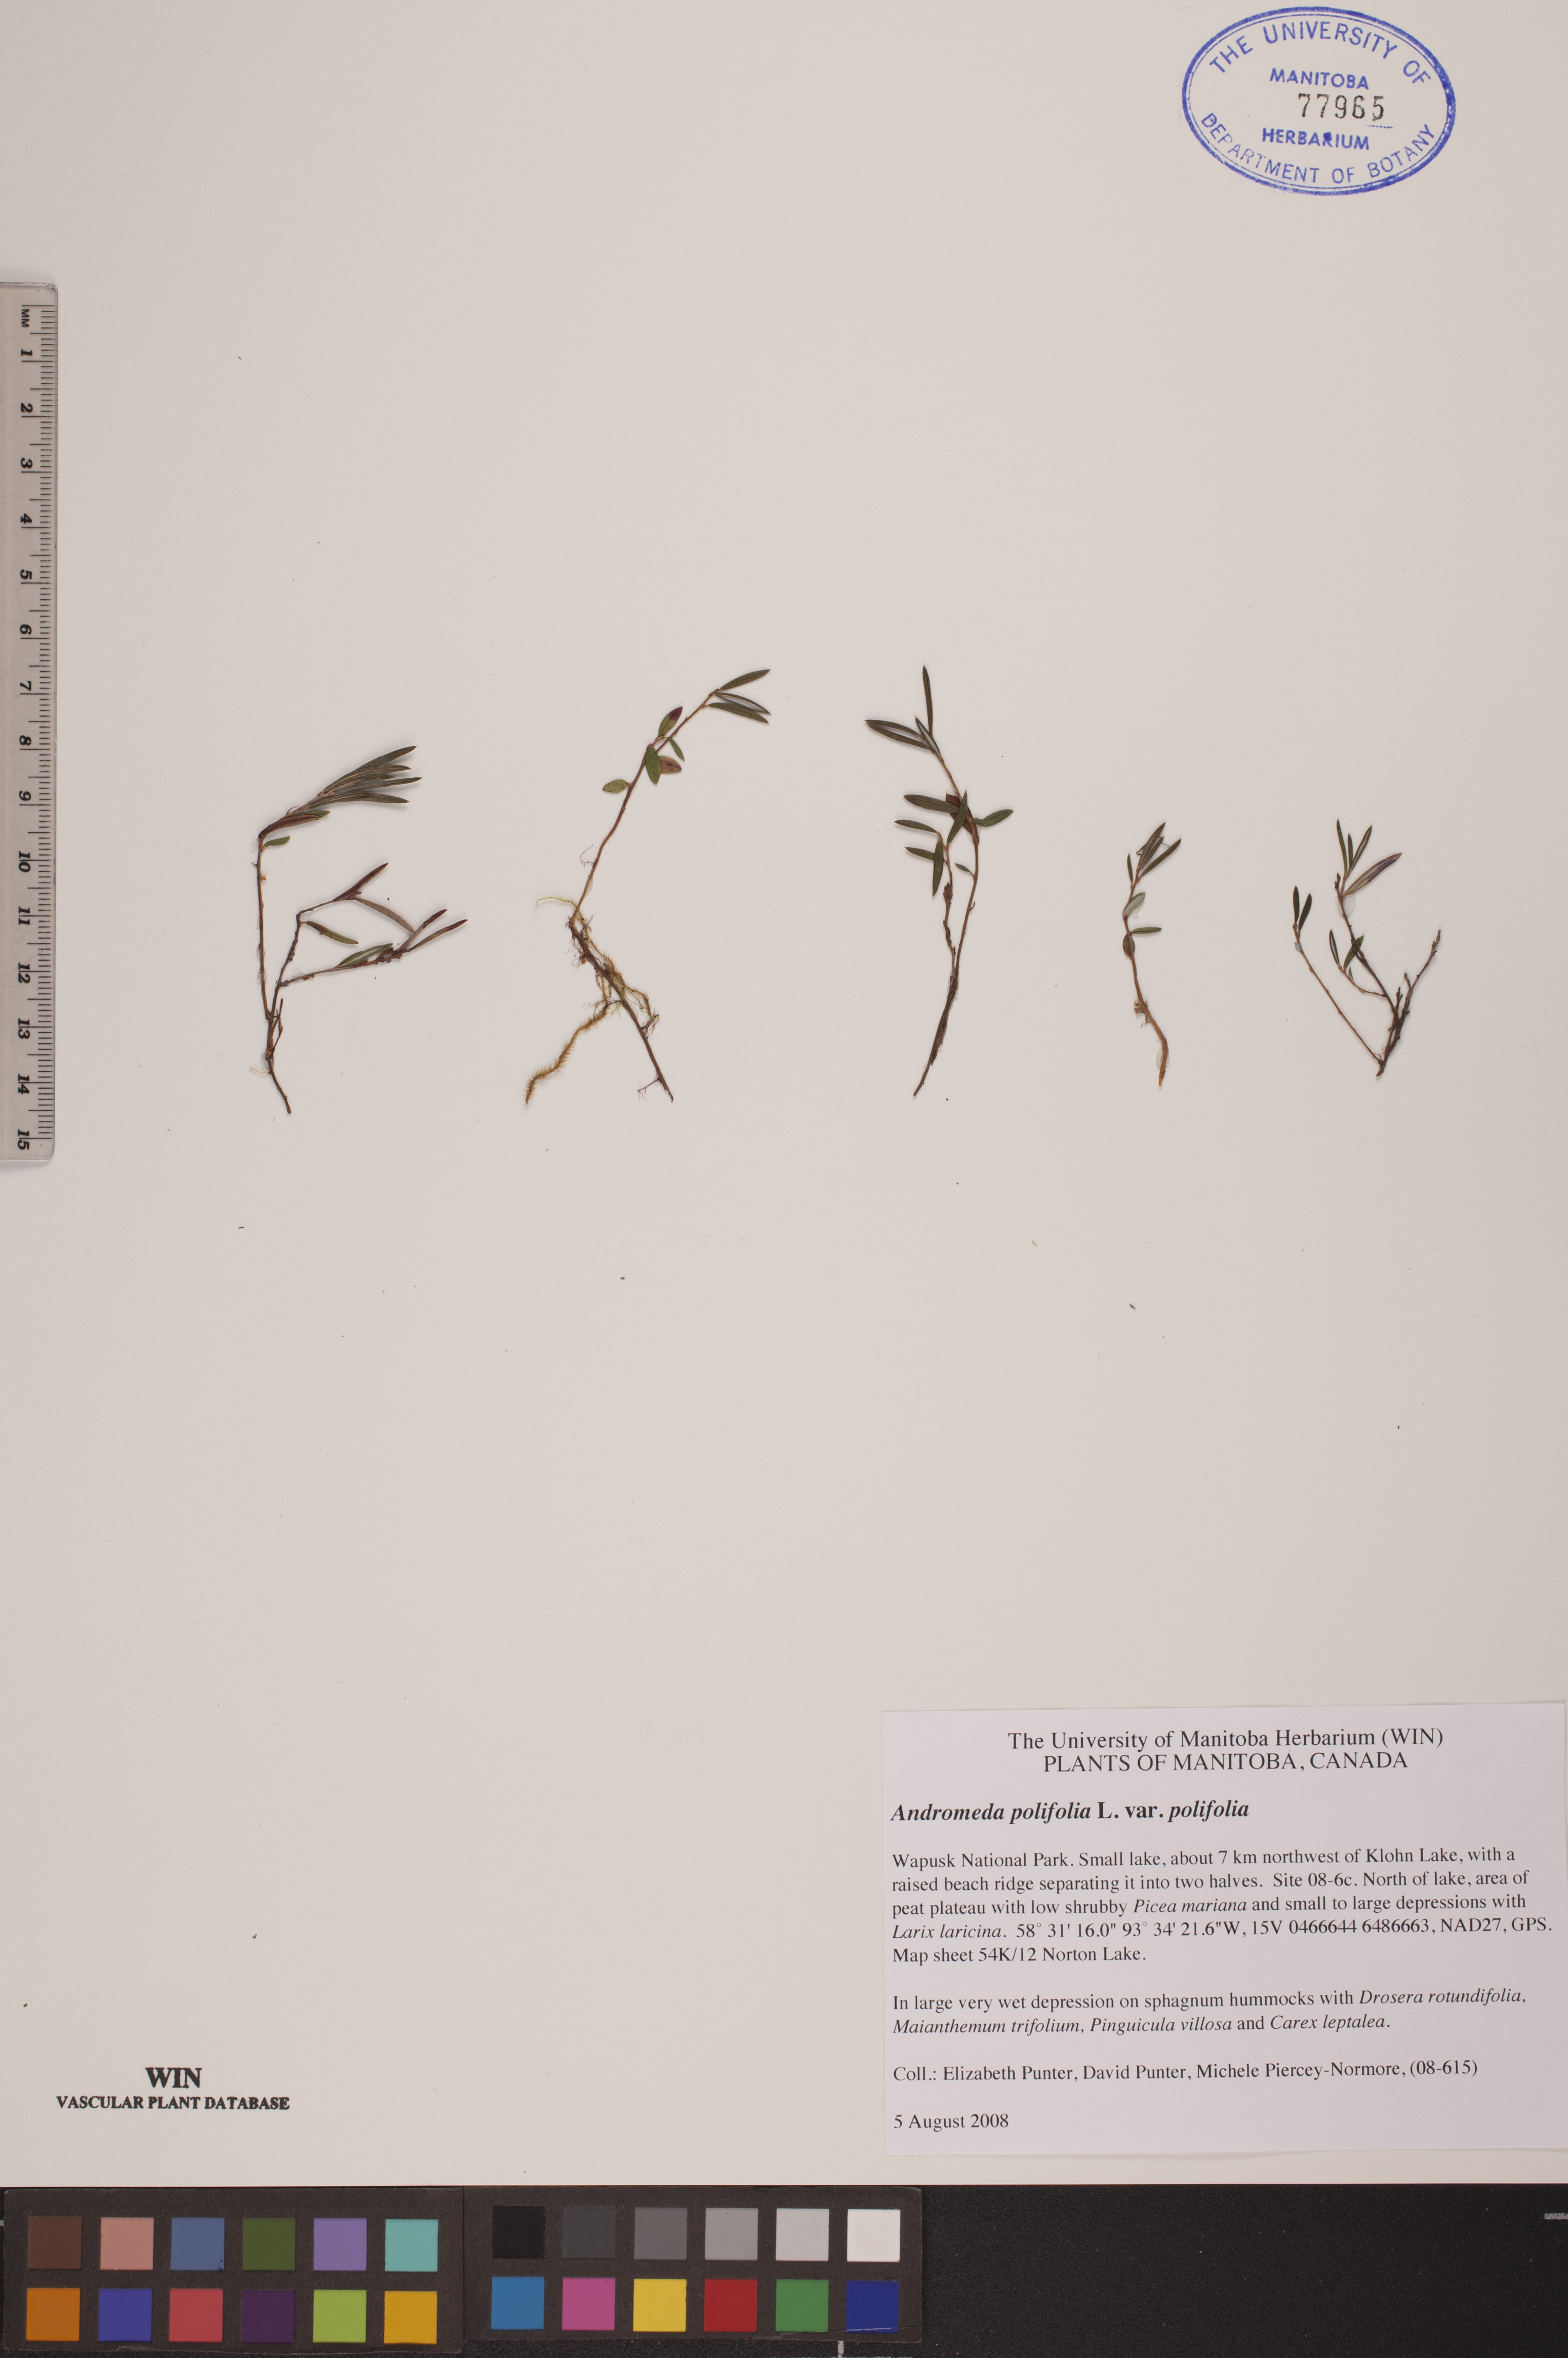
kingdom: Plantae
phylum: Tracheophyta
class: Magnoliopsida
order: Ericales
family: Ericaceae
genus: Andromeda
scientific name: Andromeda polifolia
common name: Bog-rosemary
